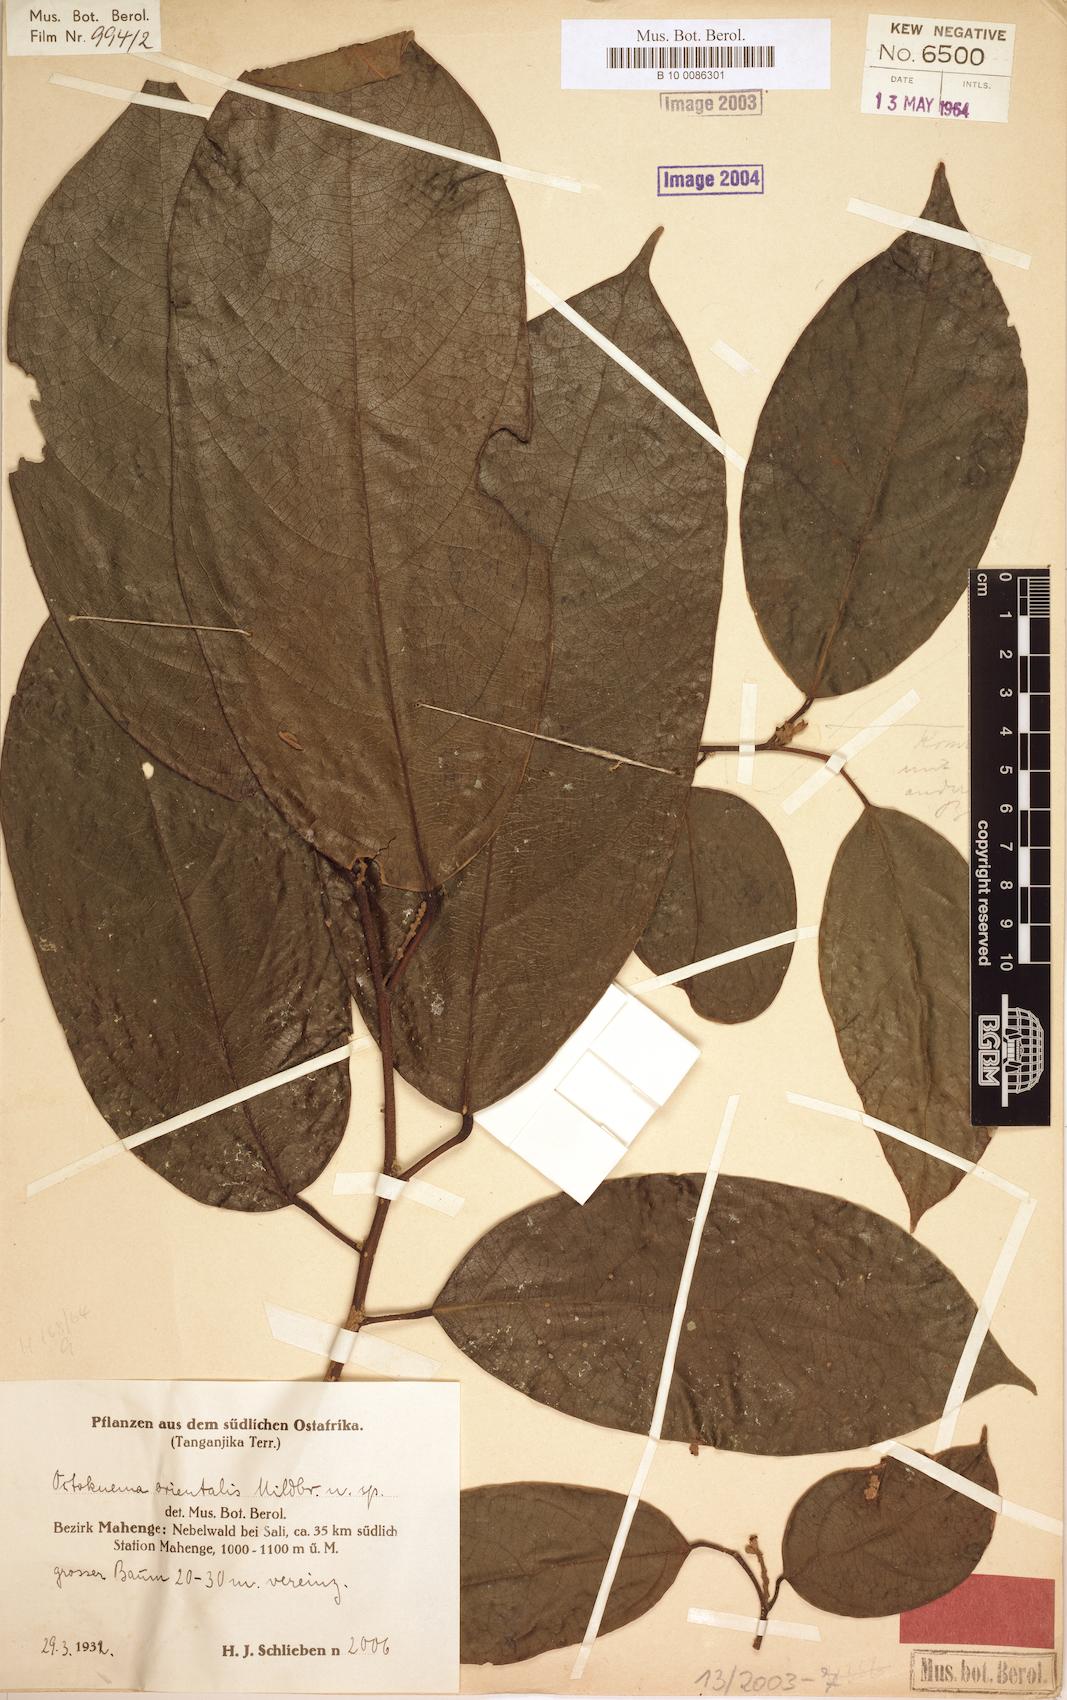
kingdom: Plantae
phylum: Tracheophyta
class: Magnoliopsida
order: Santalales
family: Octoknemaceae
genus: Octoknema
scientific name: Octoknema orientalis
